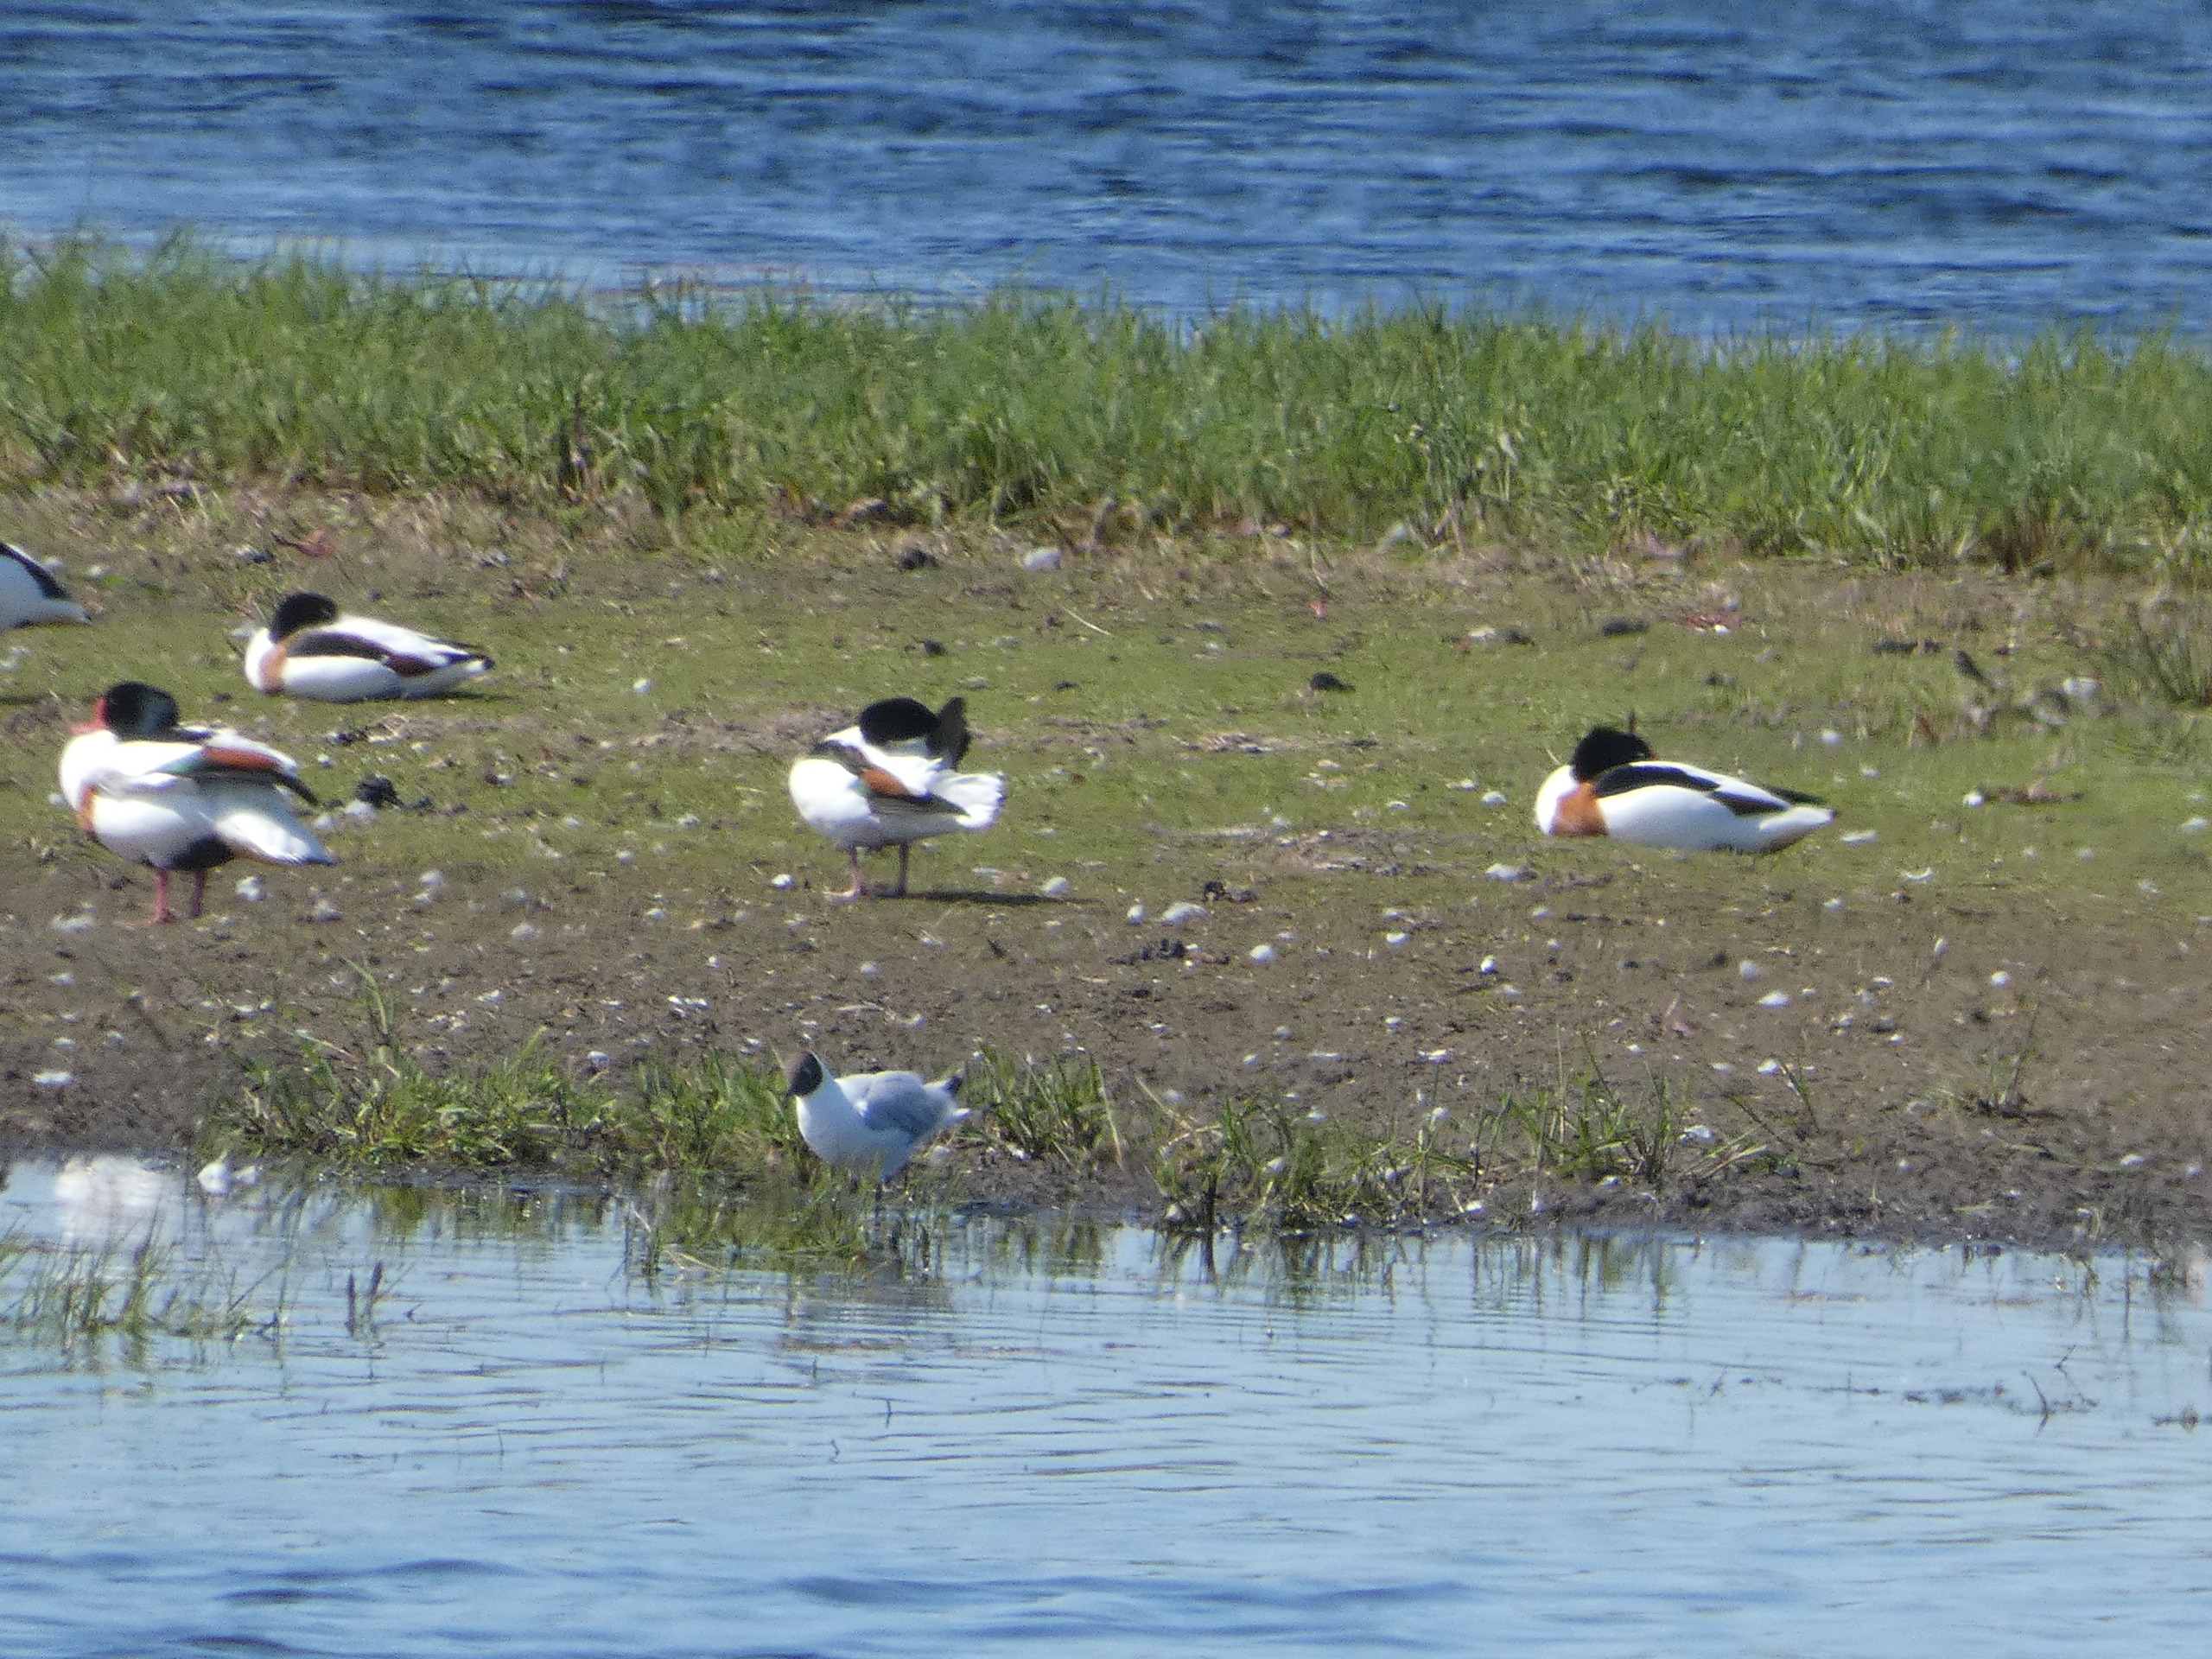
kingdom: Animalia
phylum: Chordata
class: Aves
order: Anseriformes
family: Anatidae
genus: Tadorna
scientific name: Tadorna tadorna
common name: Gravand
